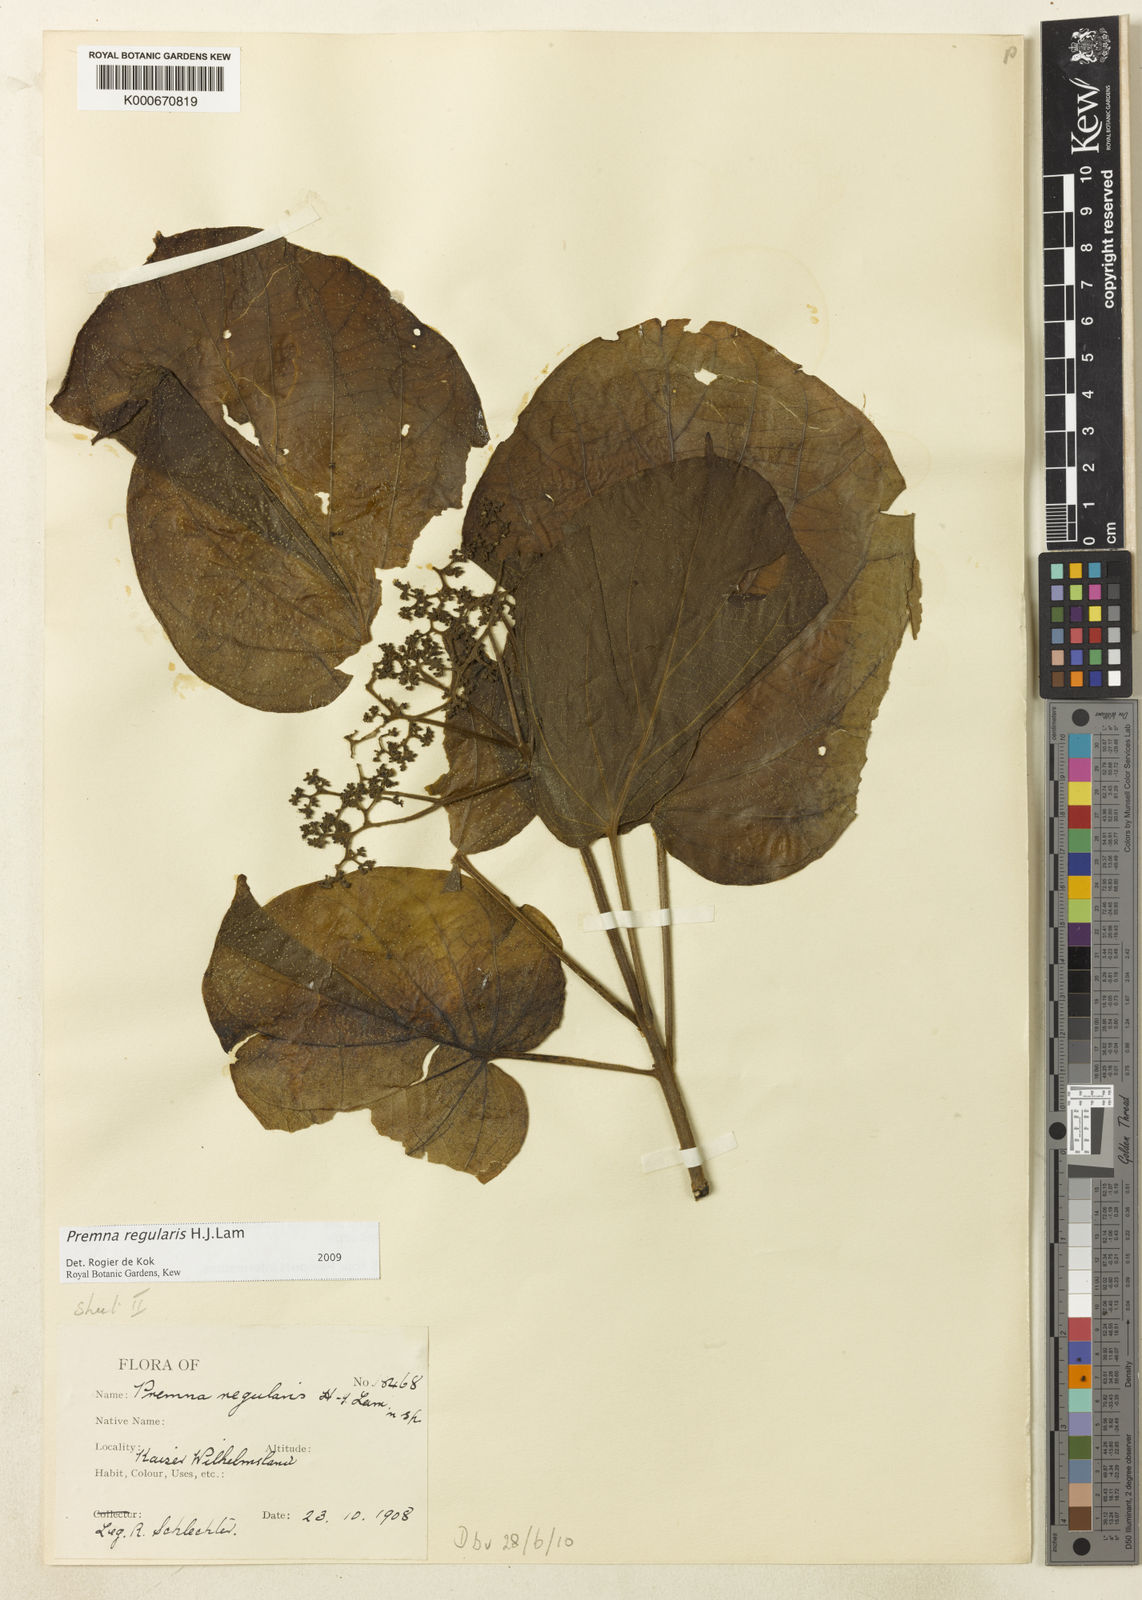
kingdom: Plantae
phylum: Tracheophyta
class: Magnoliopsida
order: Lamiales
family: Lamiaceae
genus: Premna
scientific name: Premna regularis
